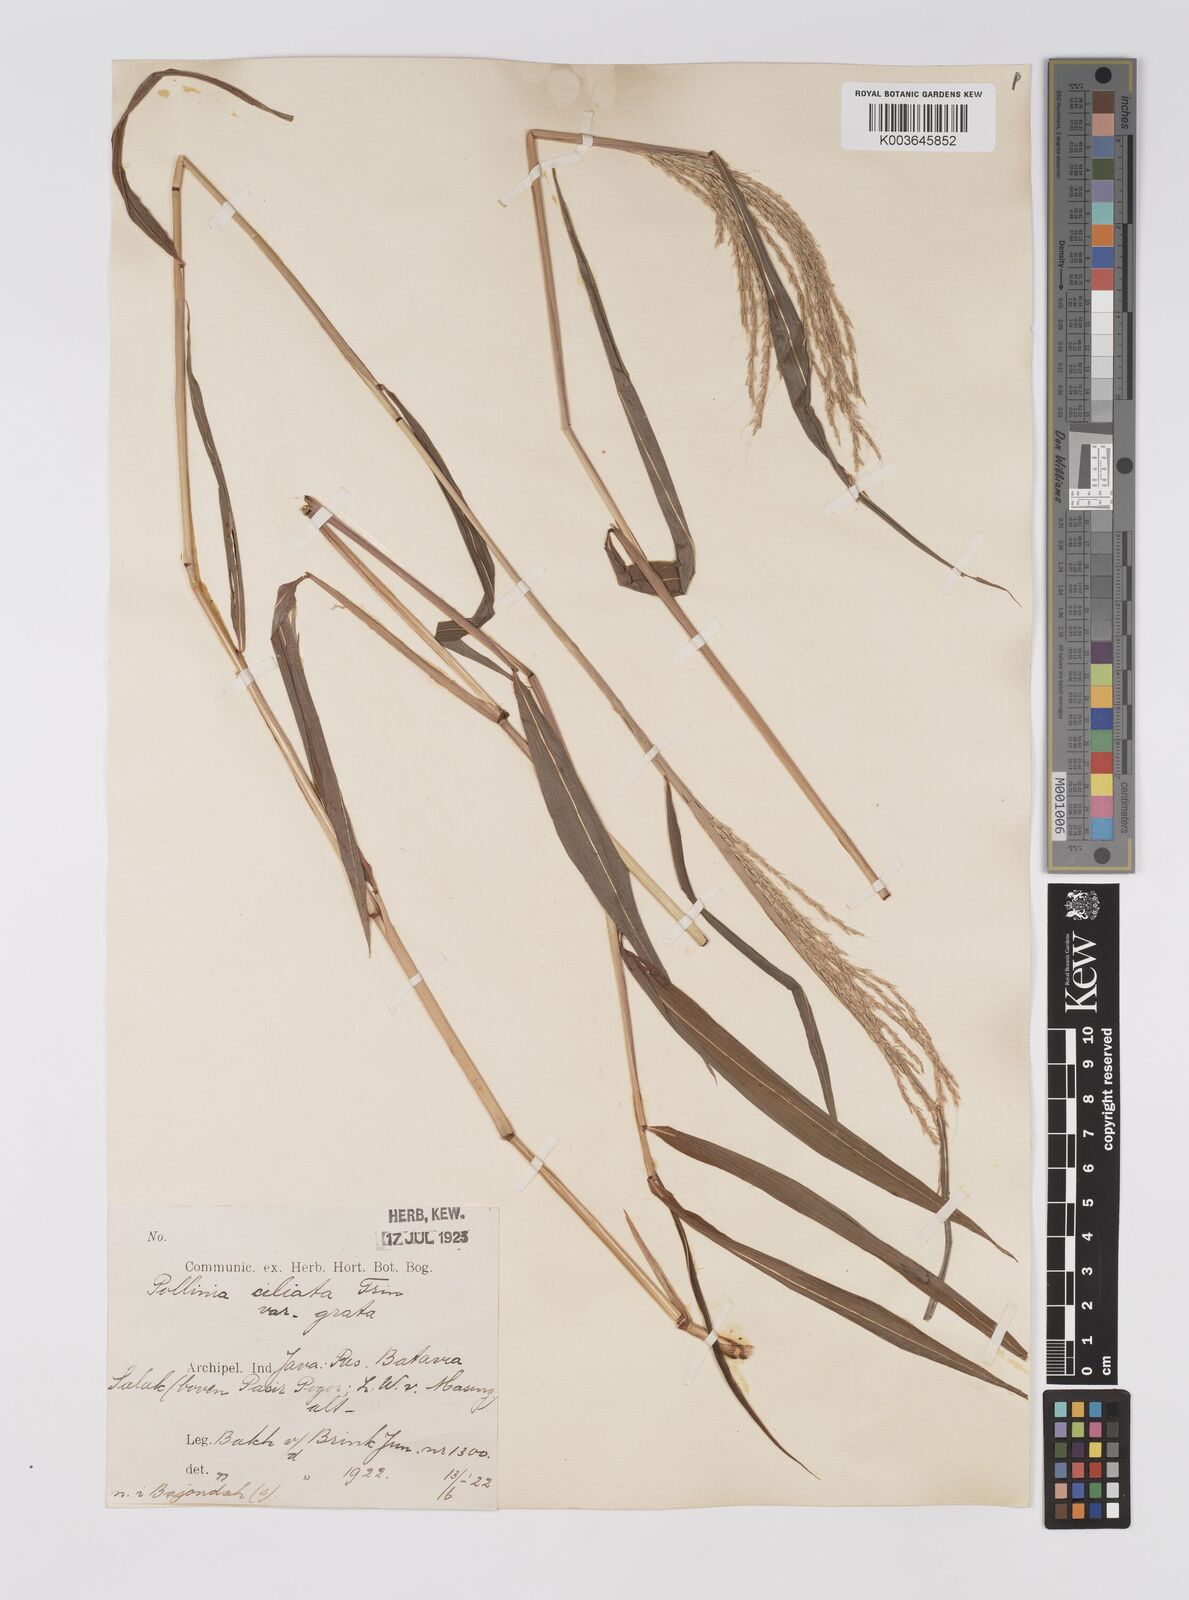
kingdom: Plantae
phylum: Tracheophyta
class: Liliopsida
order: Poales
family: Poaceae
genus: Microstegium
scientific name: Microstegium fasciculatum
